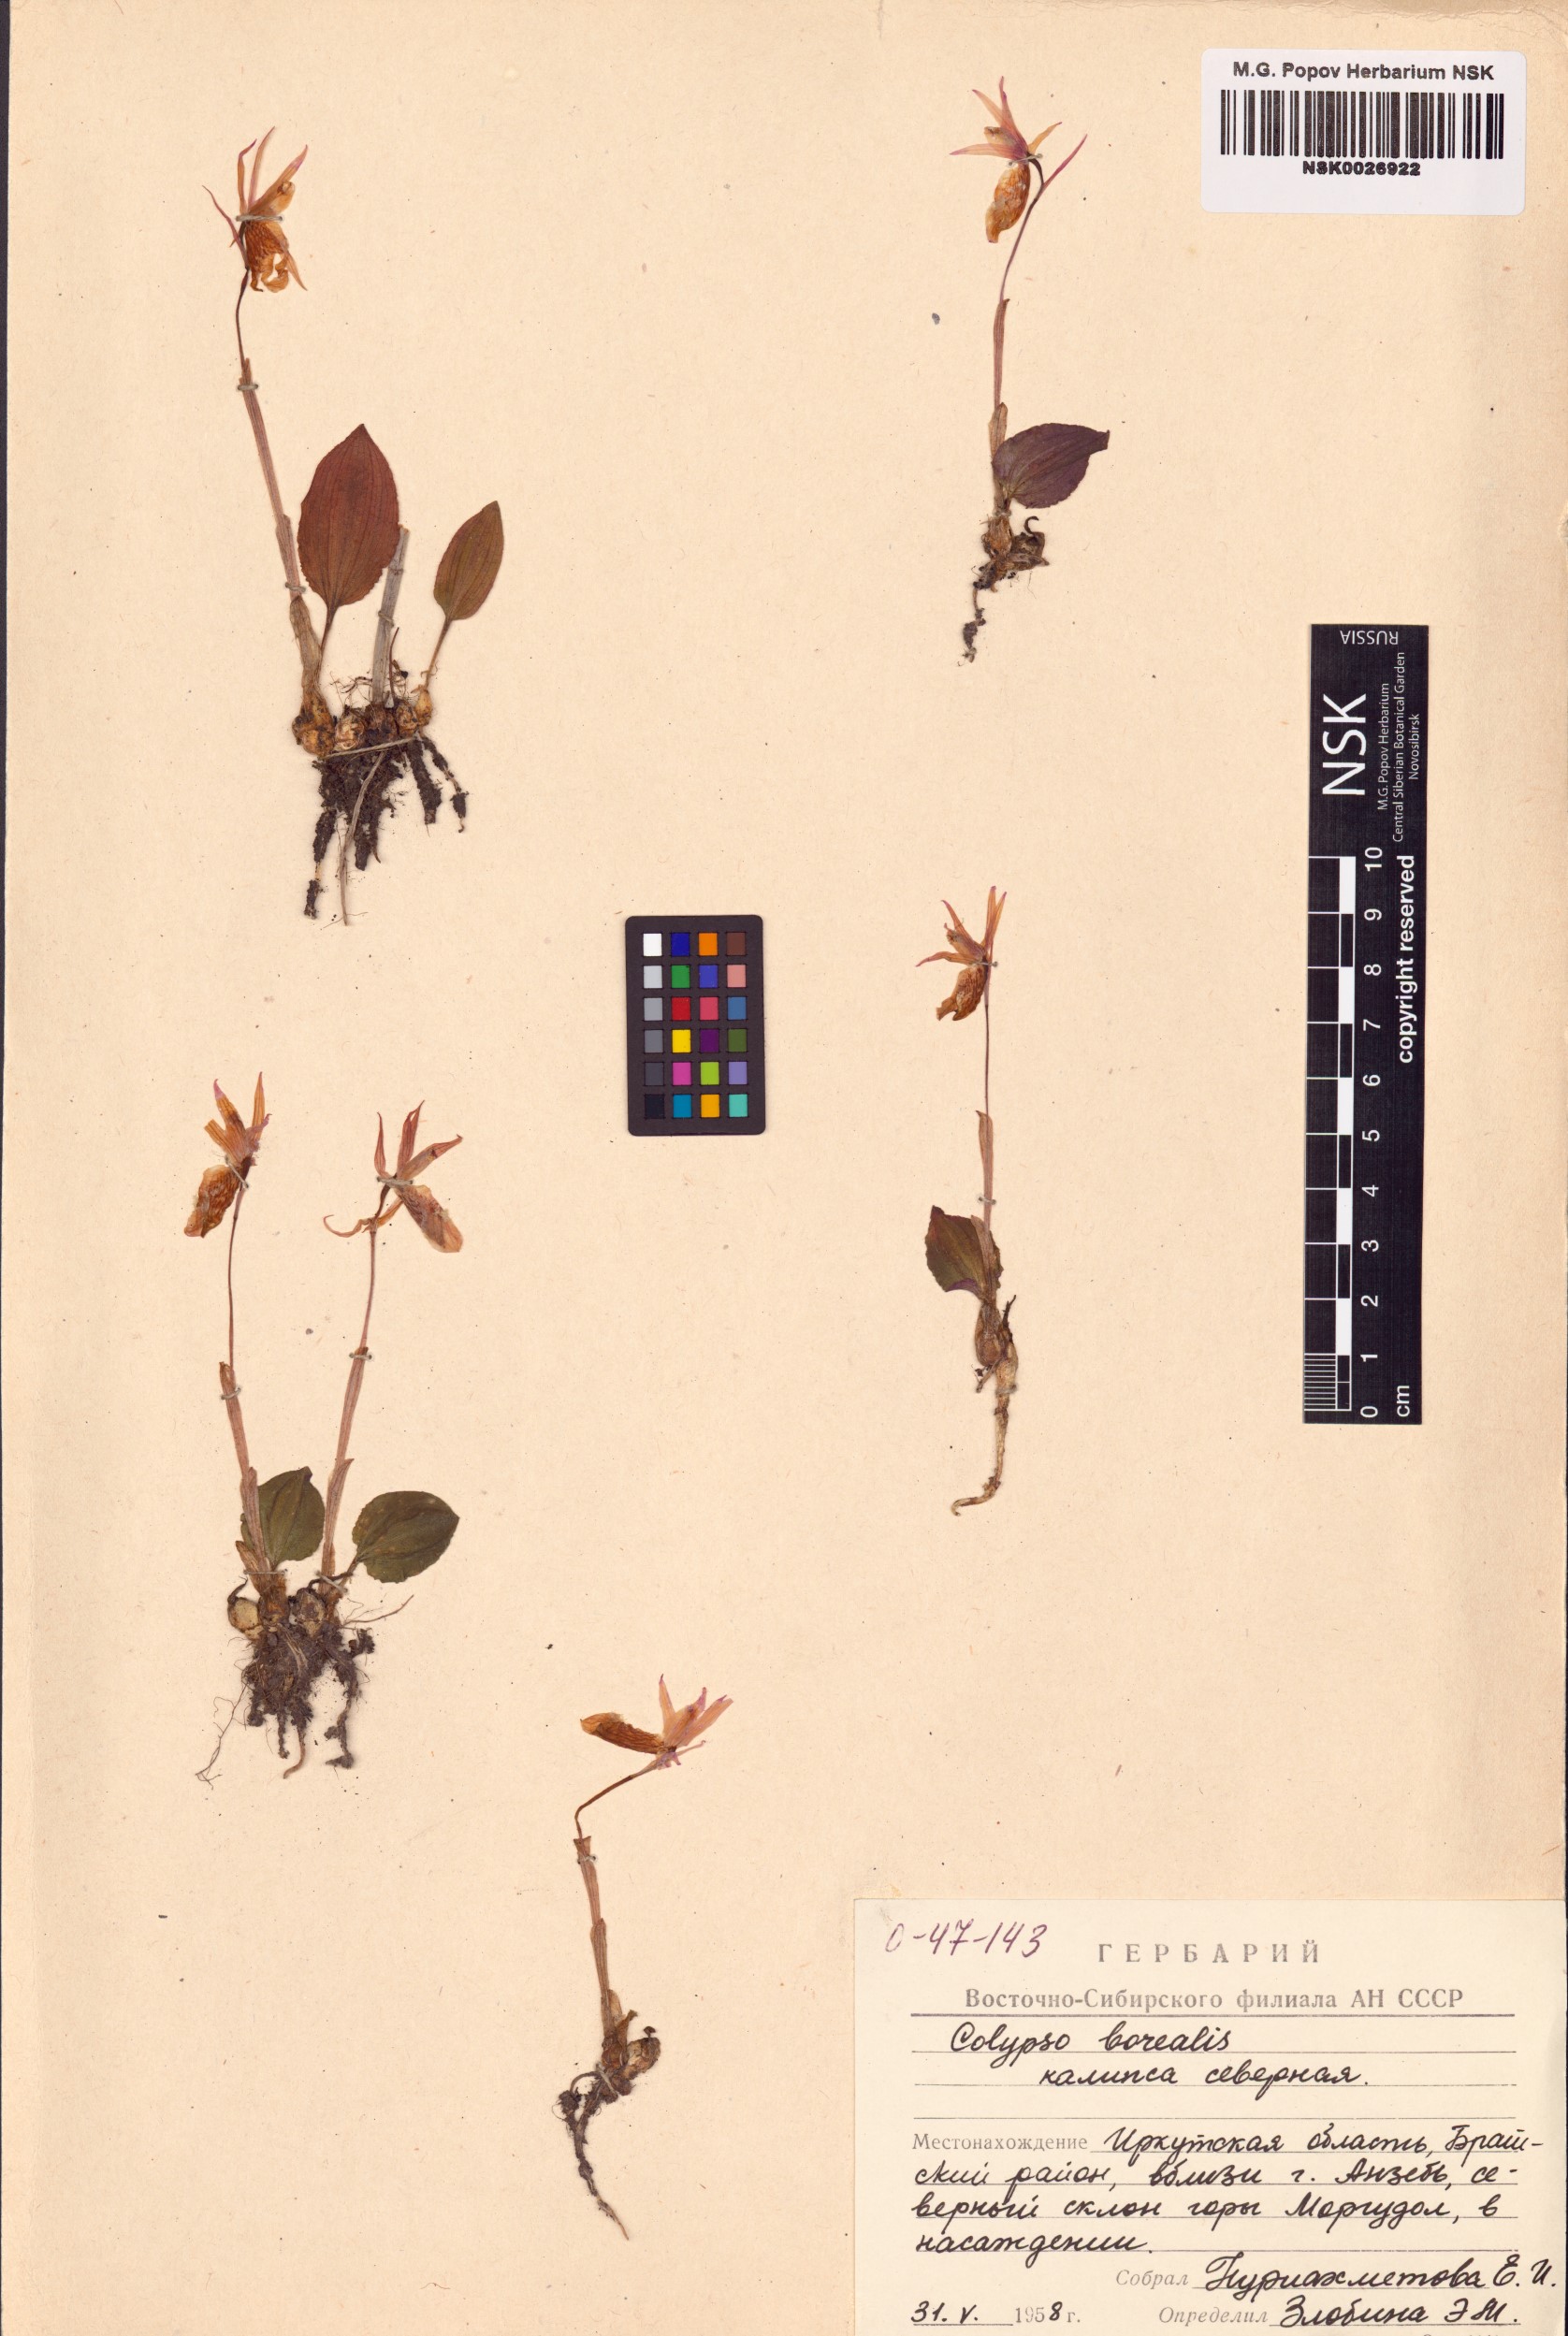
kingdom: Plantae
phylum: Tracheophyta
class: Liliopsida
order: Asparagales
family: Orchidaceae
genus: Calypso
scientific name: Calypso bulbosa
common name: Calypso
